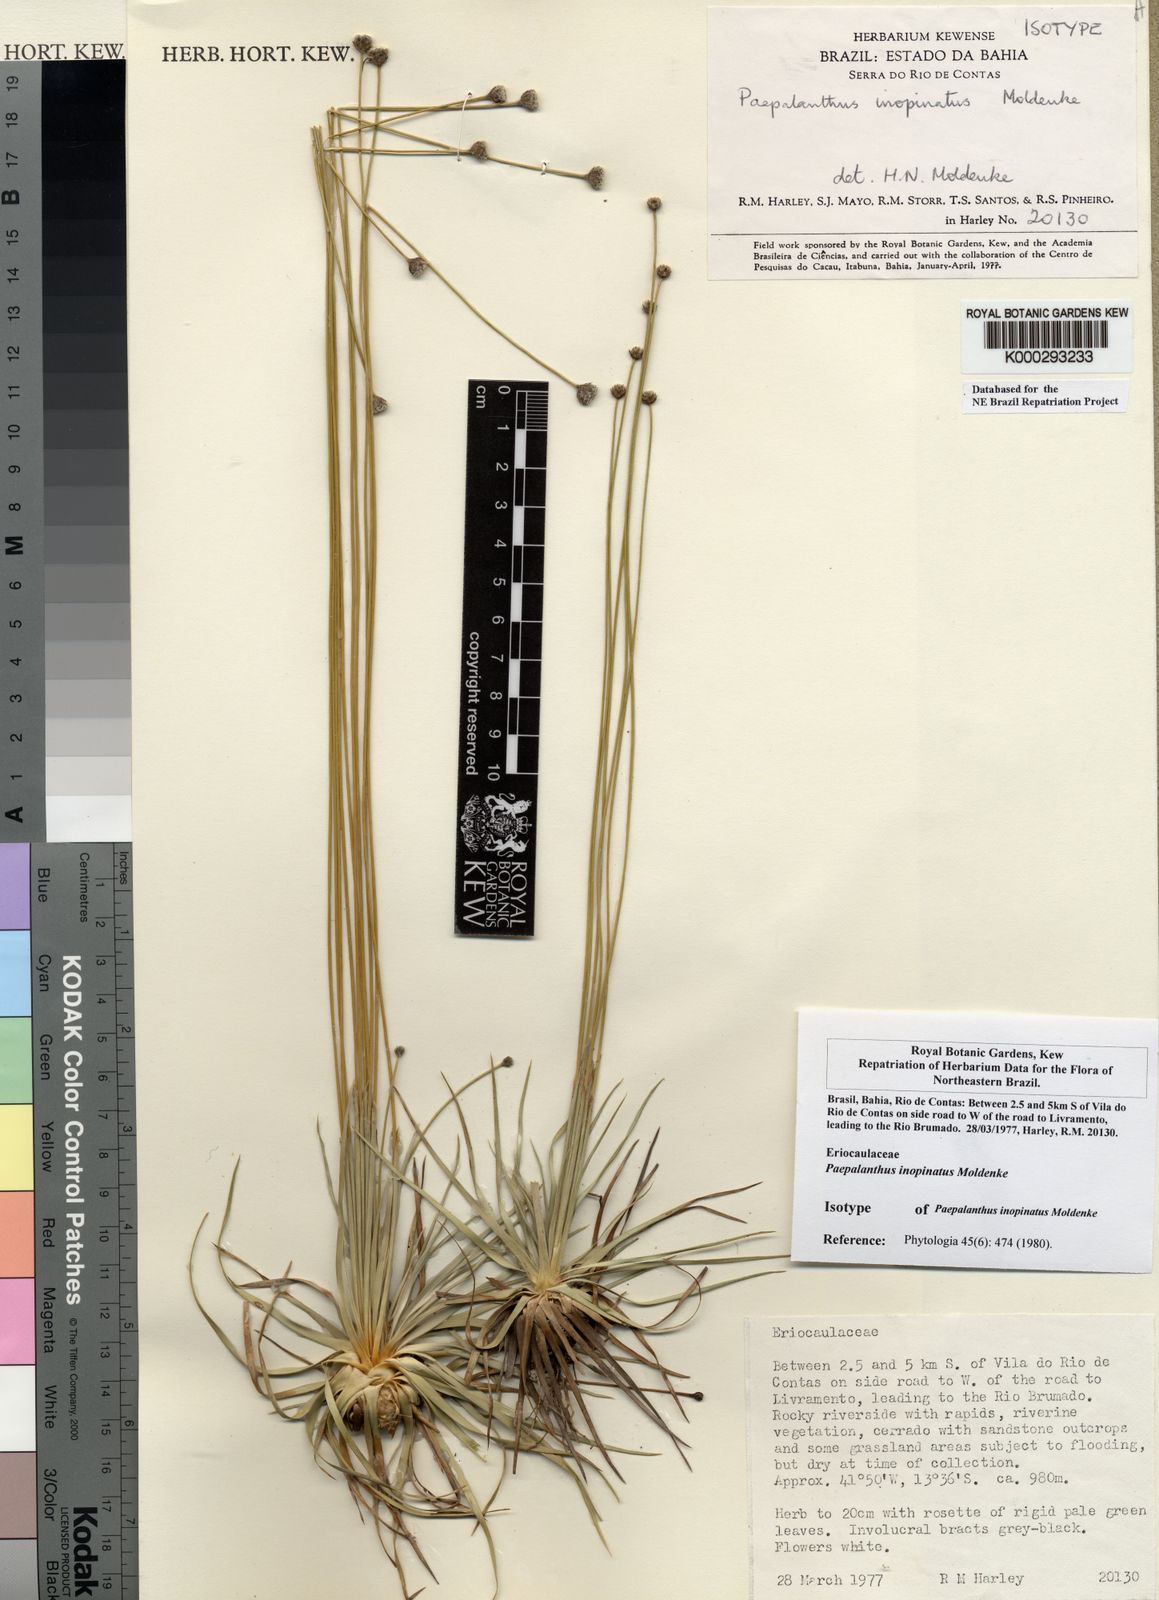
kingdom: Plantae
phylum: Tracheophyta
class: Liliopsida
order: Poales
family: Eriocaulaceae
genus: Paepalanthus
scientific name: Paepalanthus inopinatus
